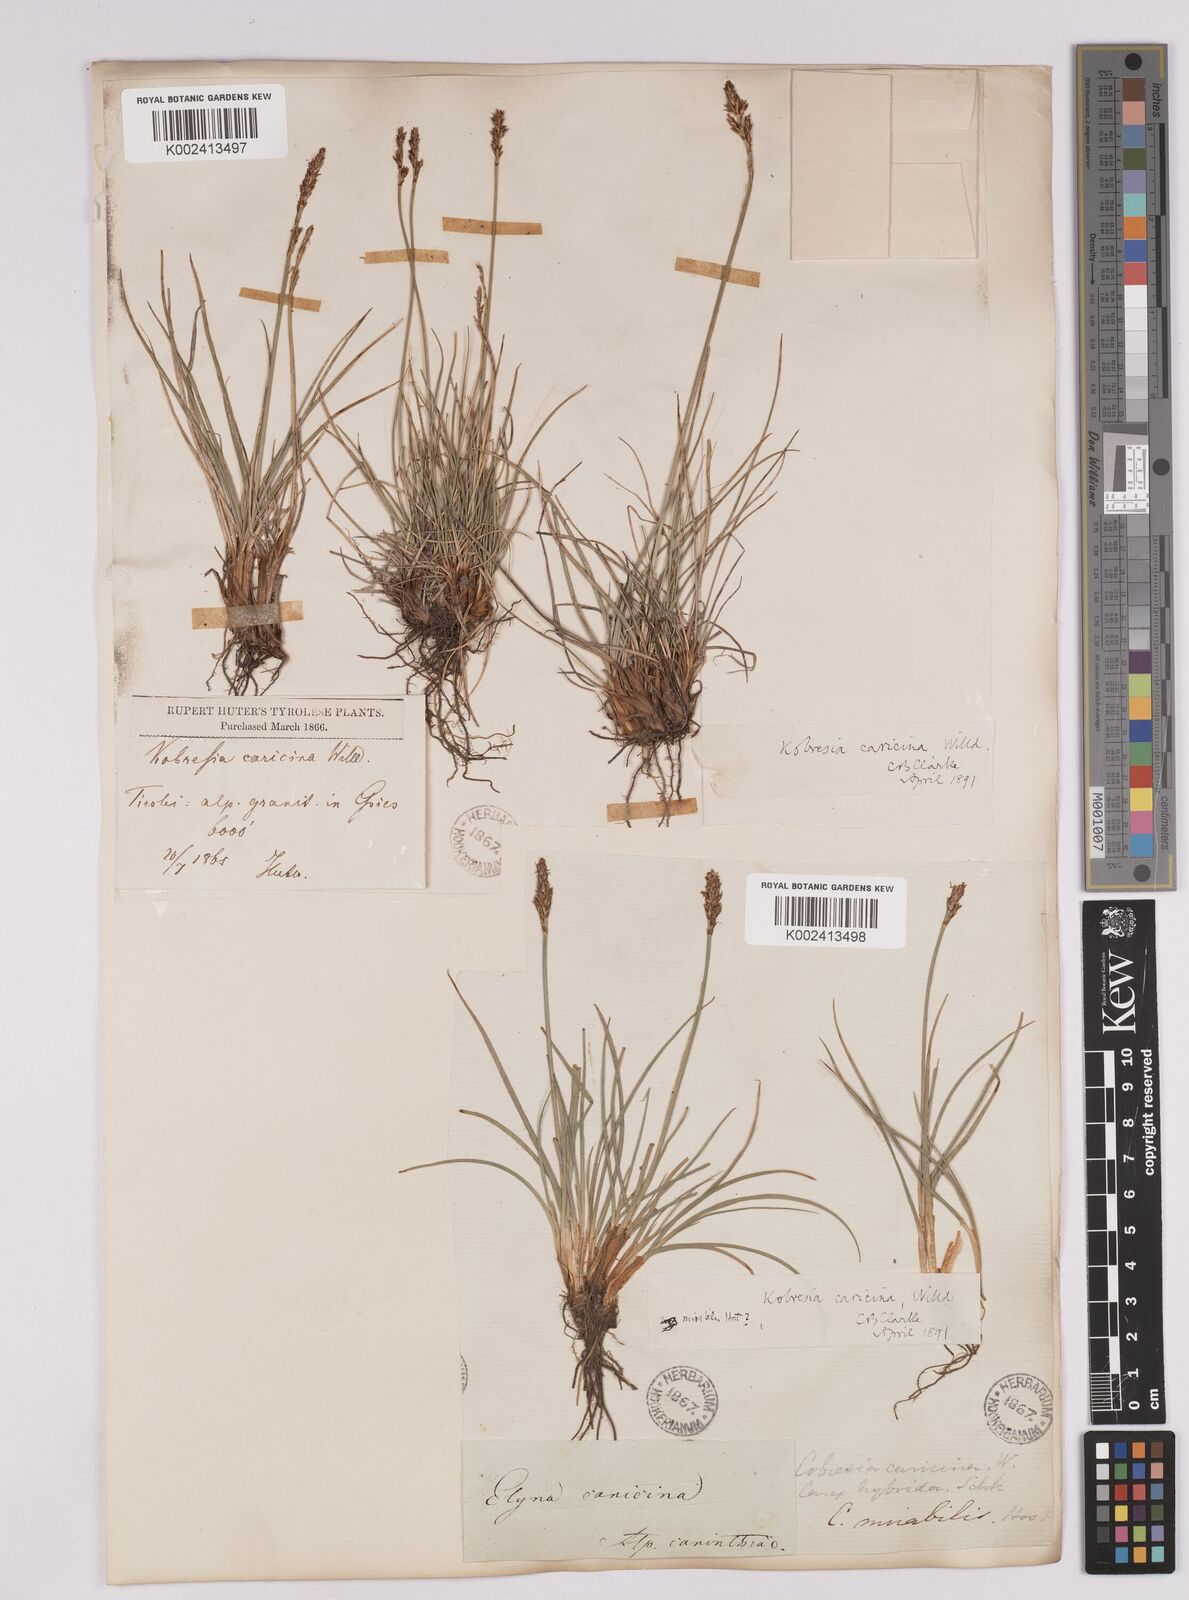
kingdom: Plantae
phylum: Tracheophyta
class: Liliopsida
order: Poales
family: Cyperaceae
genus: Carex
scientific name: Carex simpliciuscula
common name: Simple bog sedge
